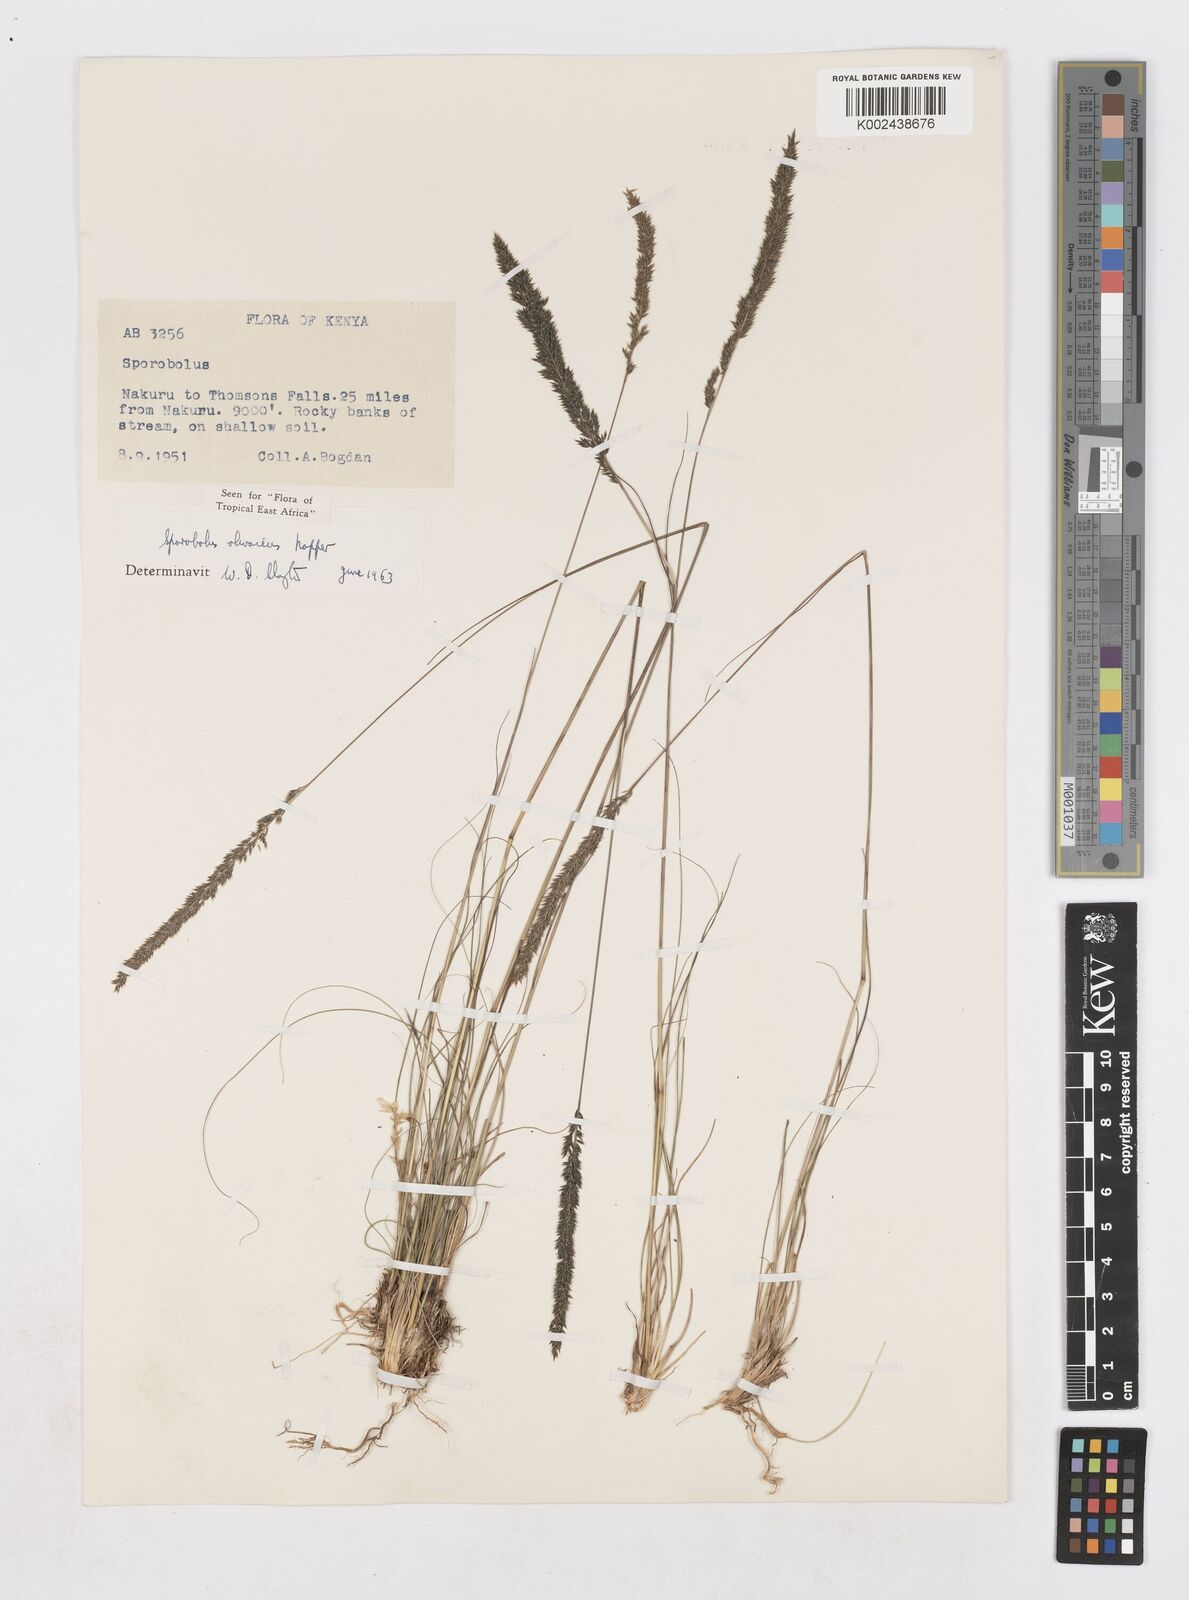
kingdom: Plantae
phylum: Tracheophyta
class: Liliopsida
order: Poales
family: Poaceae
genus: Sporobolus
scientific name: Sporobolus olivaceus
